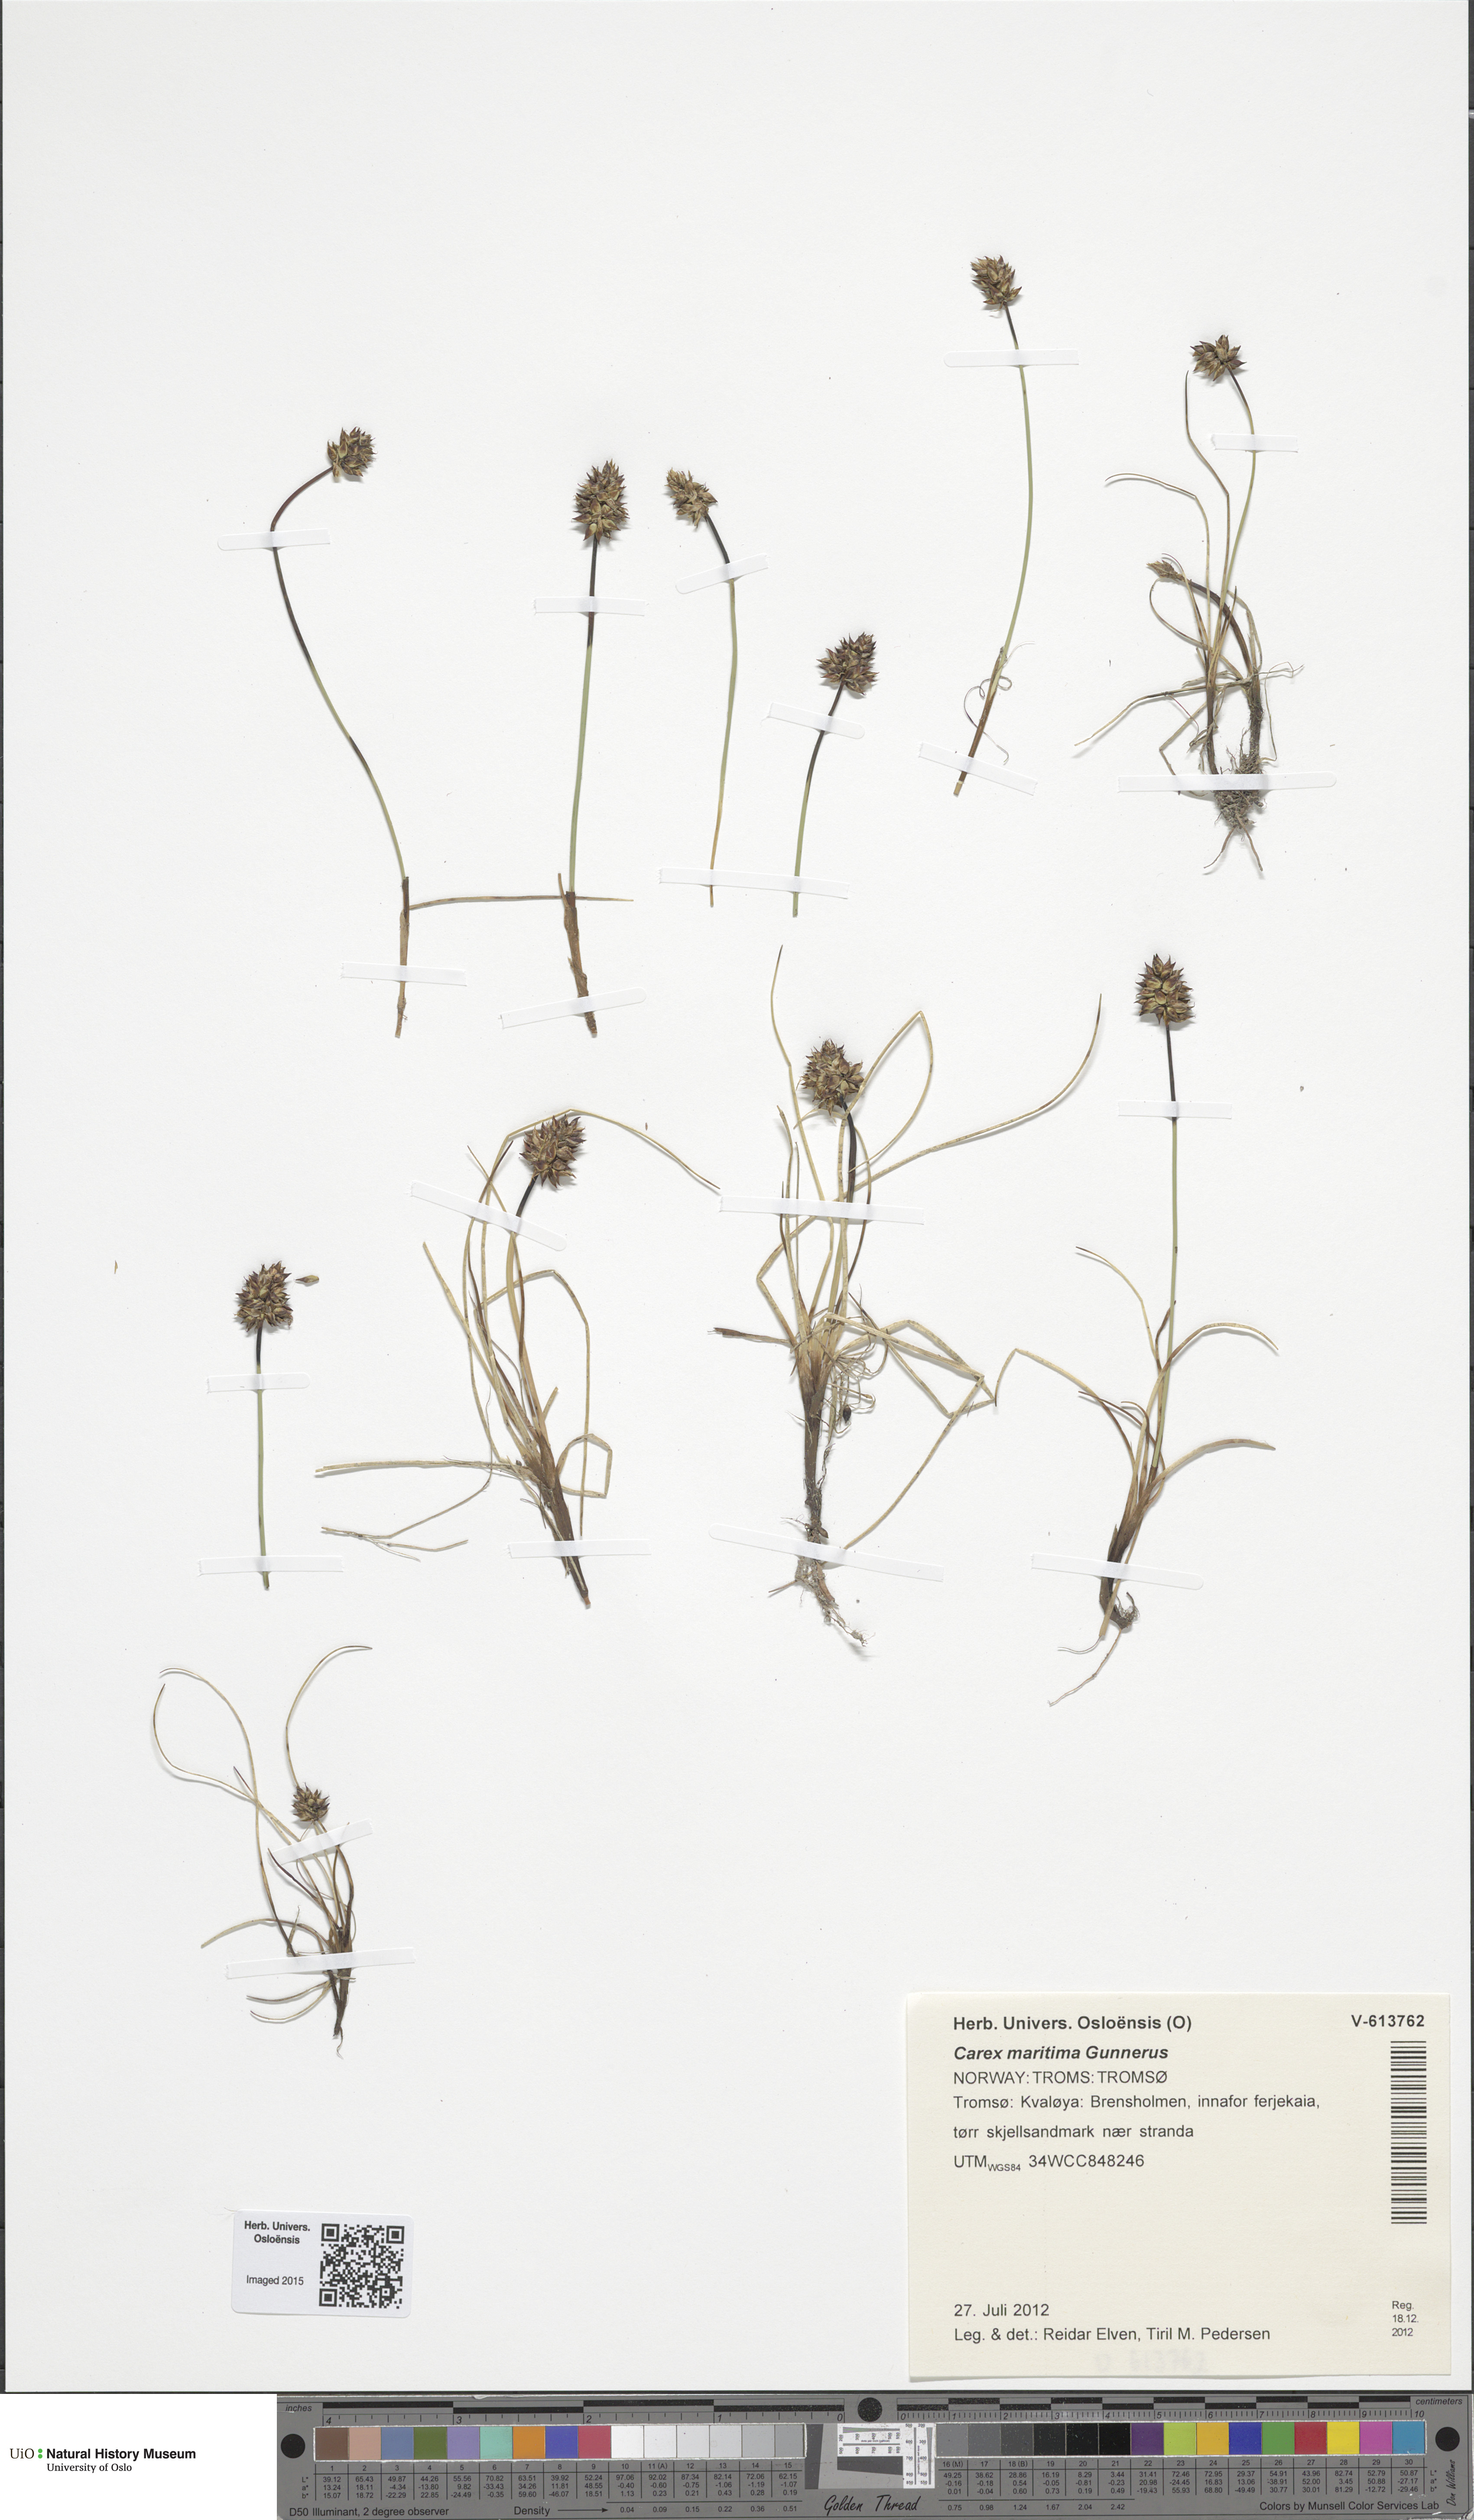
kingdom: Plantae
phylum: Tracheophyta
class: Liliopsida
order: Poales
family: Cyperaceae
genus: Carex
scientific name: Carex maritima
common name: Curved sedge
